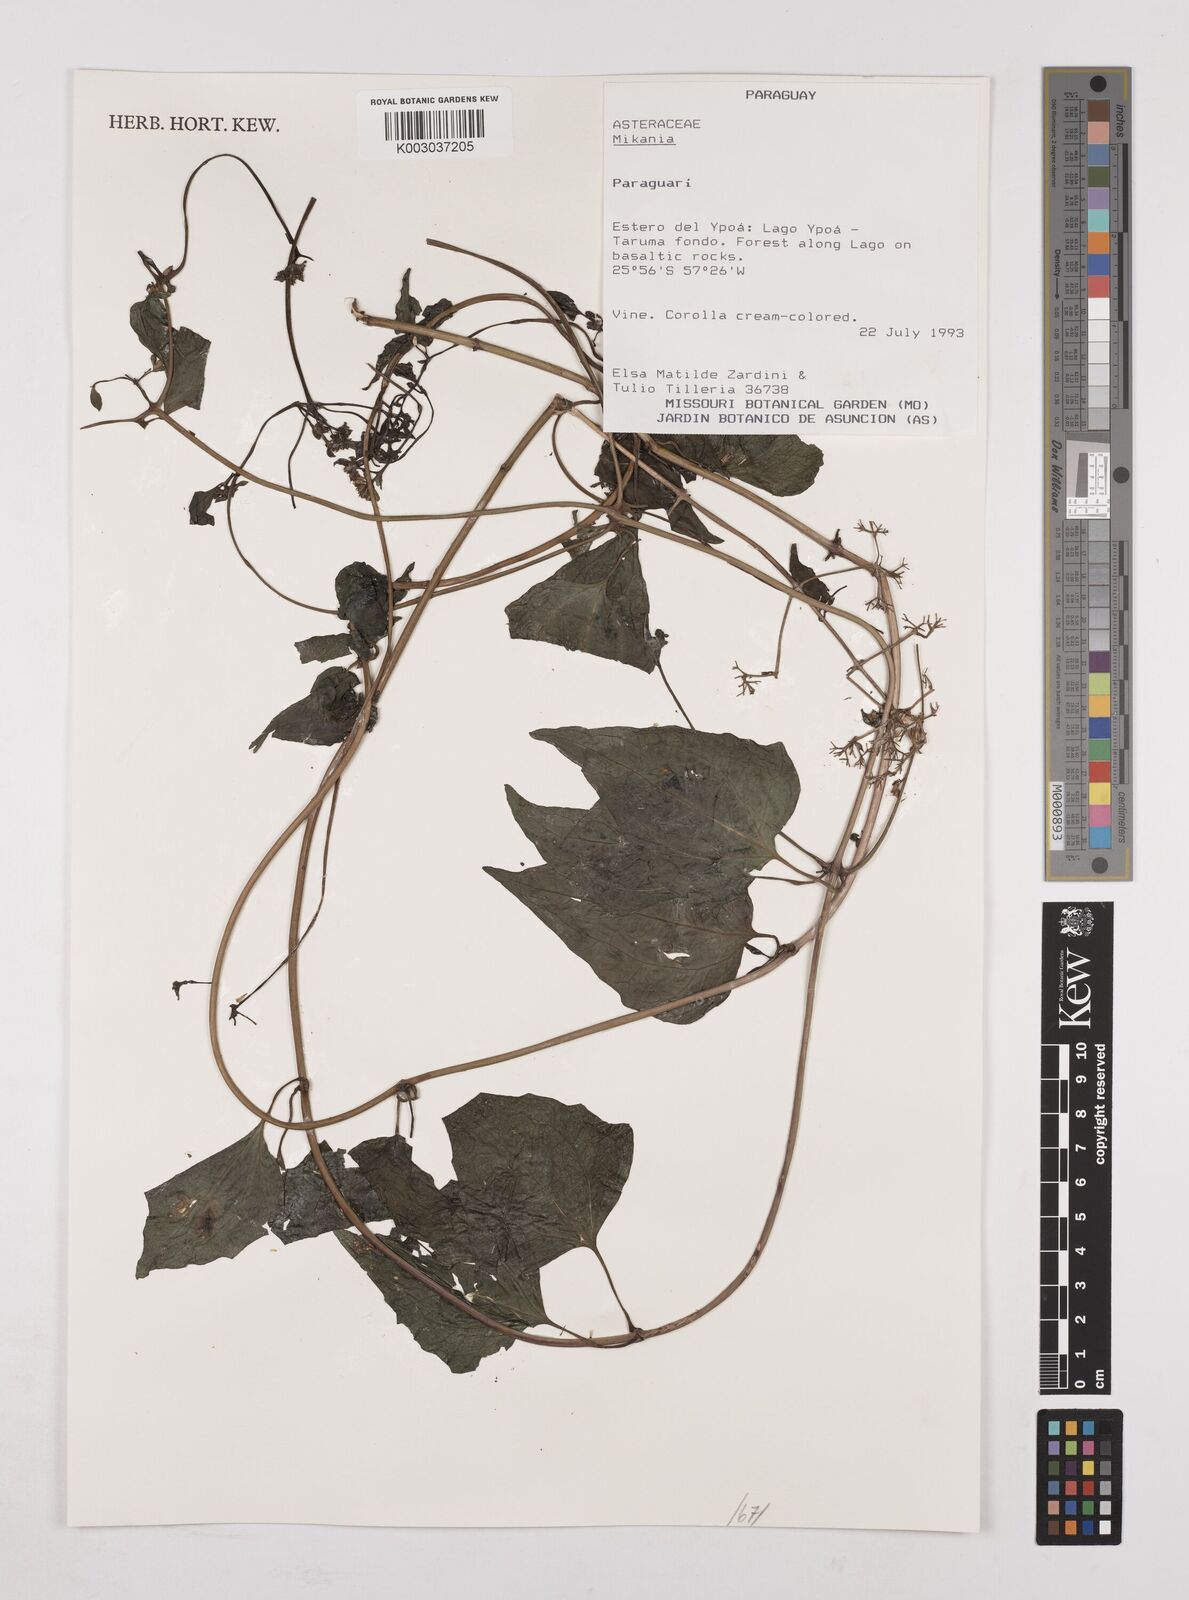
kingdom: Plantae
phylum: Tracheophyta
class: Magnoliopsida
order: Asterales
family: Asteraceae
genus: Mikania
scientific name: Mikania
